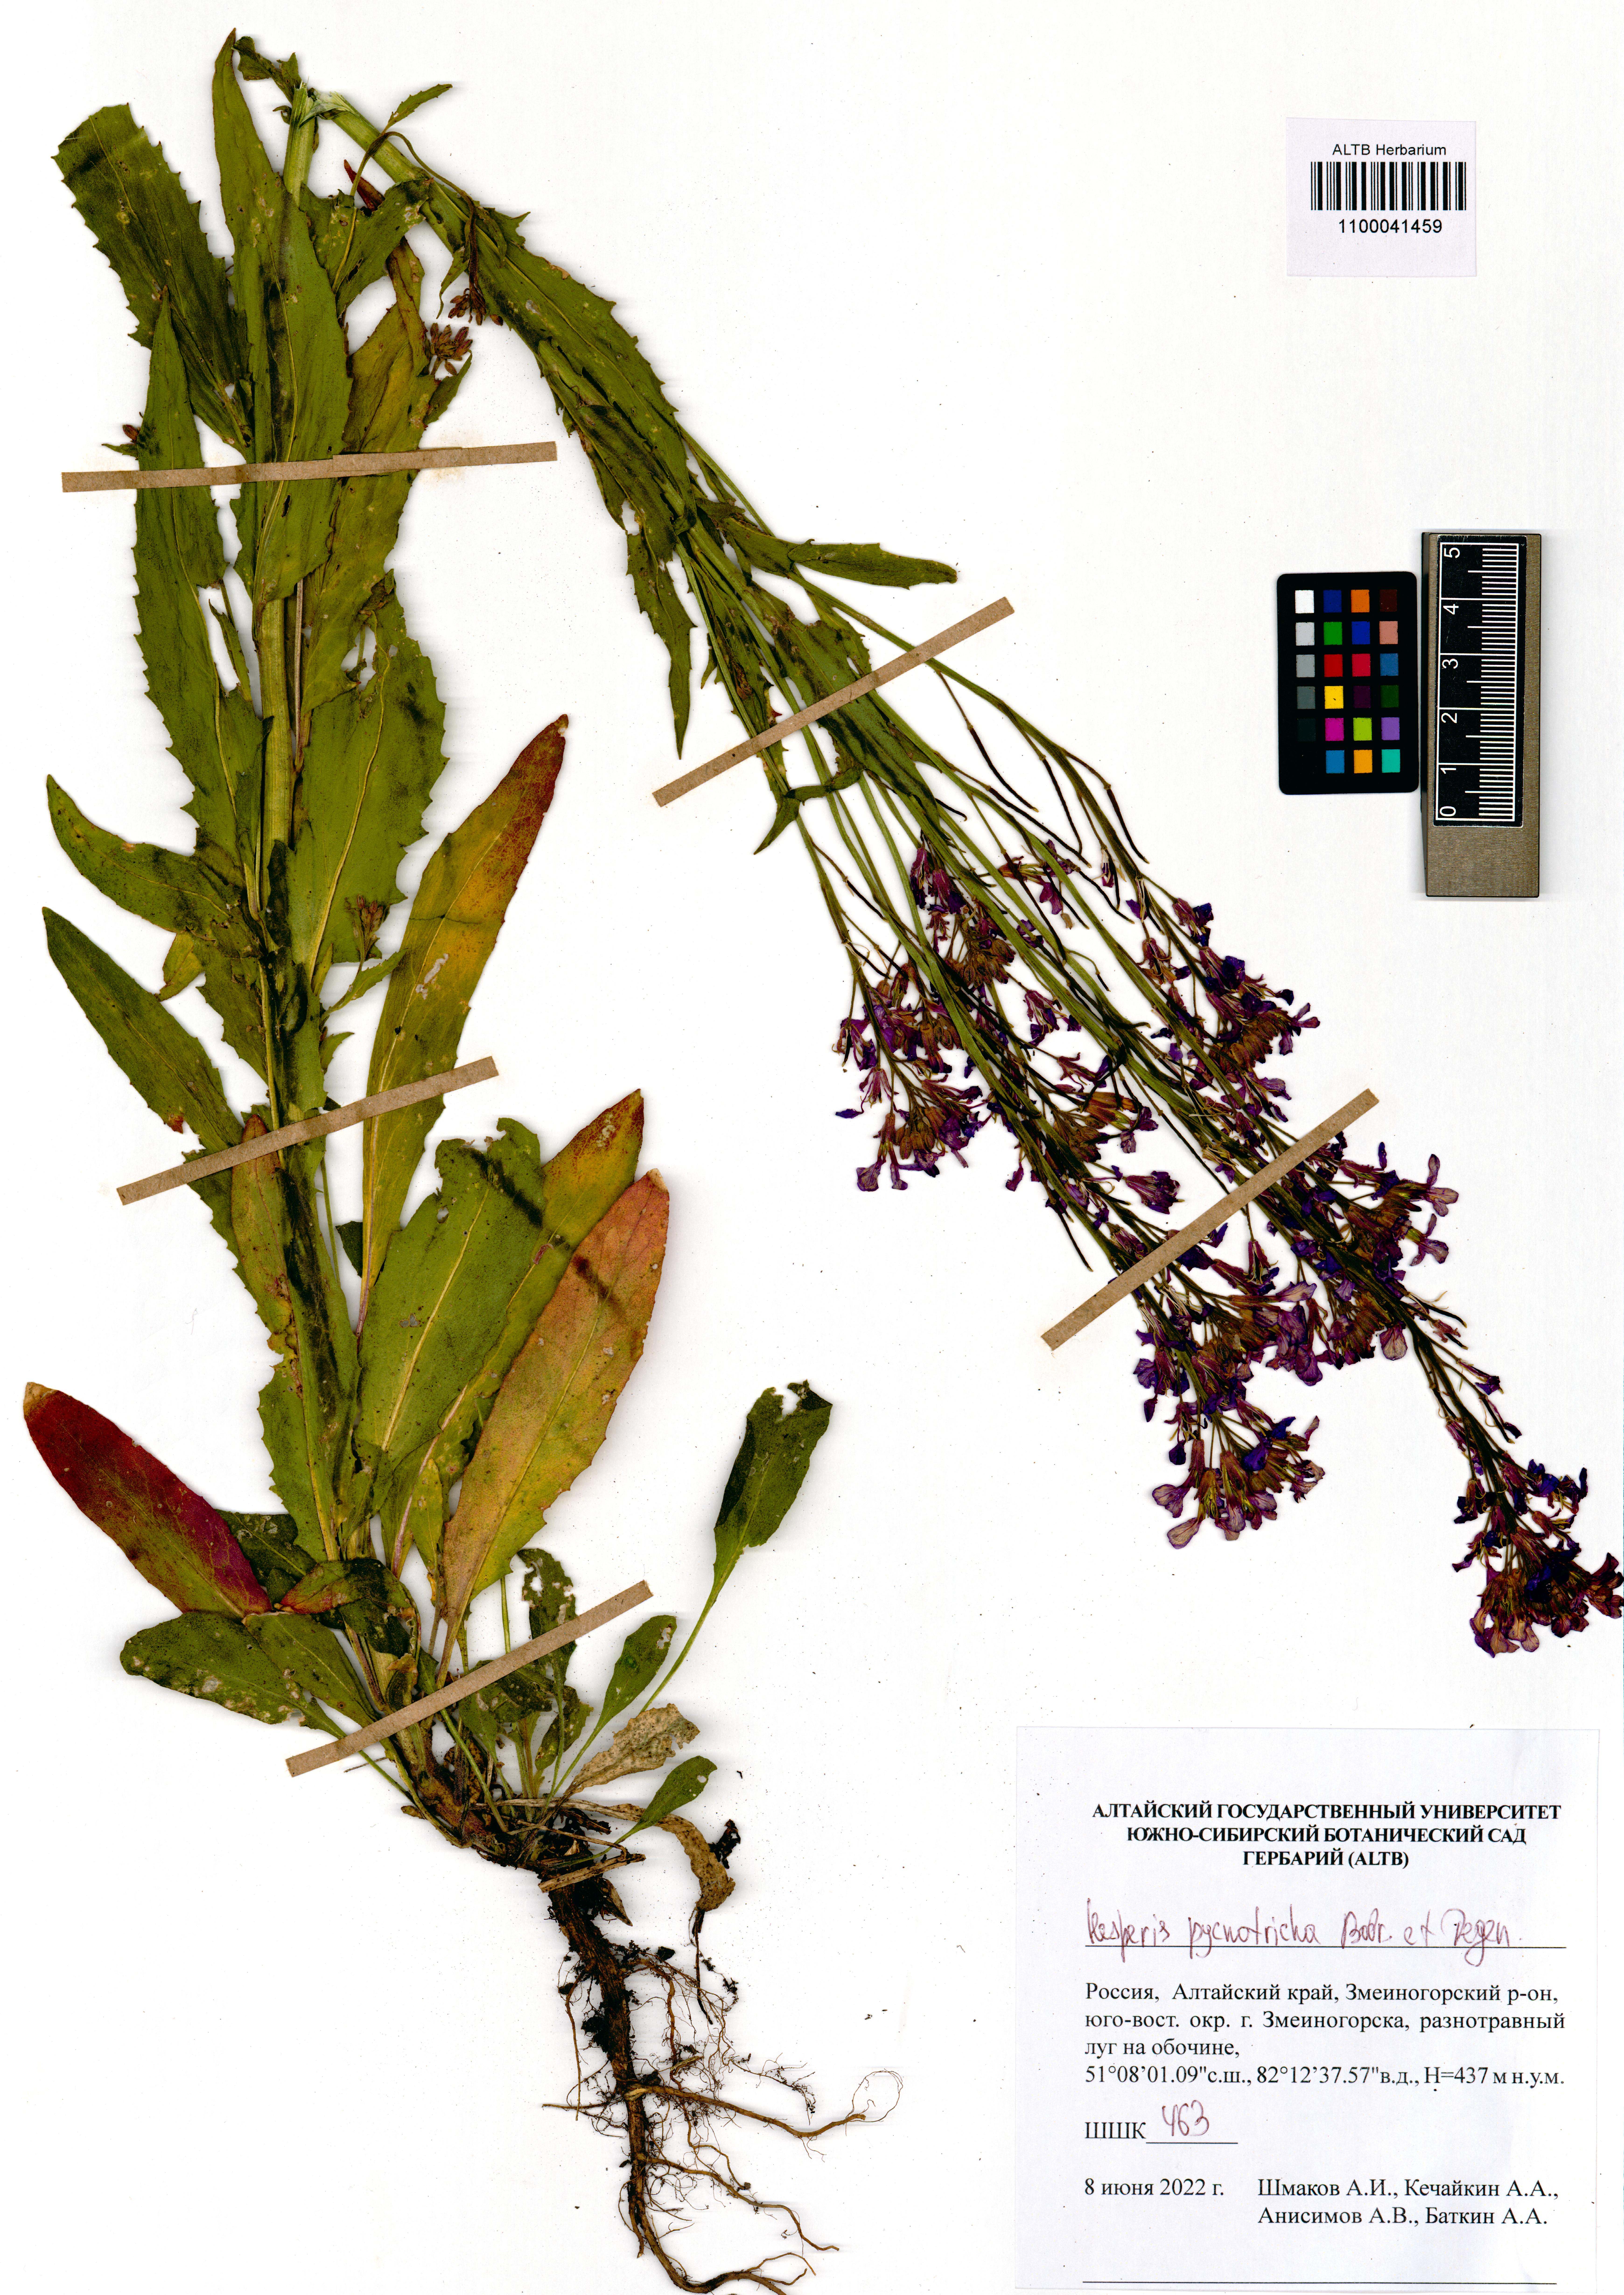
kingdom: Plantae
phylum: Tracheophyta
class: Magnoliopsida
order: Brassicales
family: Brassicaceae
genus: Hesperis
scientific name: Hesperis pycnotricha
